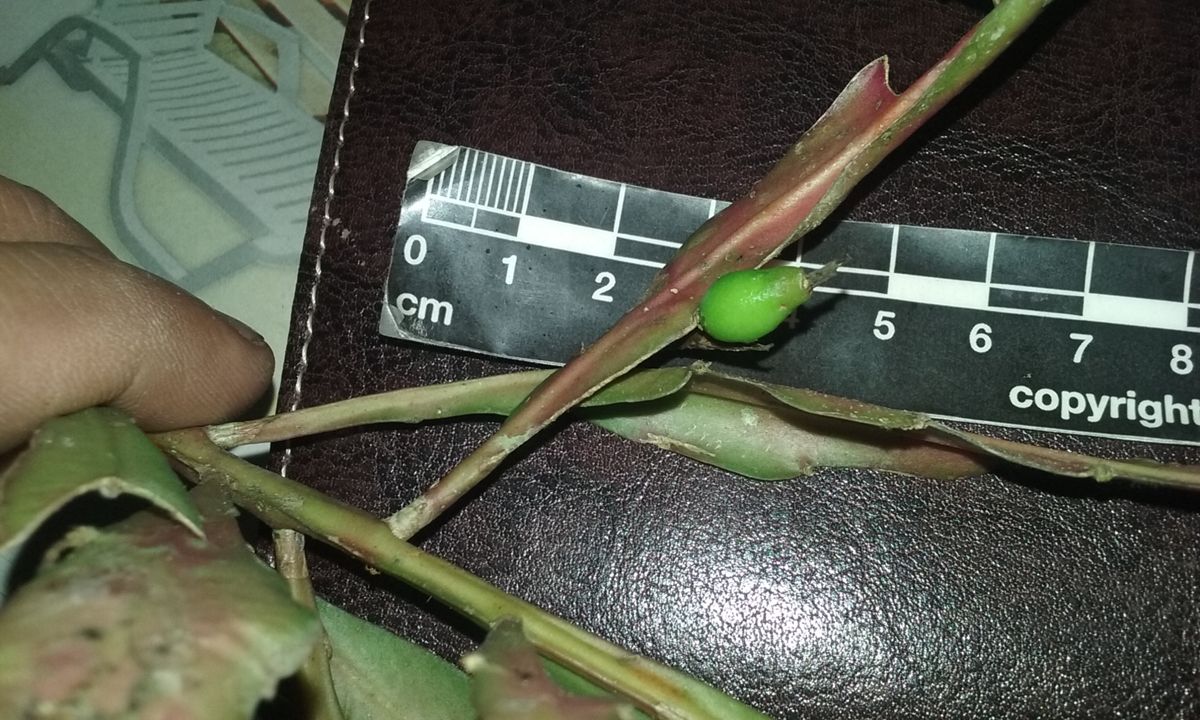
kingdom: Plantae
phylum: Tracheophyta
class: Magnoliopsida
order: Caryophyllales
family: Cactaceae
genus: Disocactus
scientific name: Disocactus nelsonii
